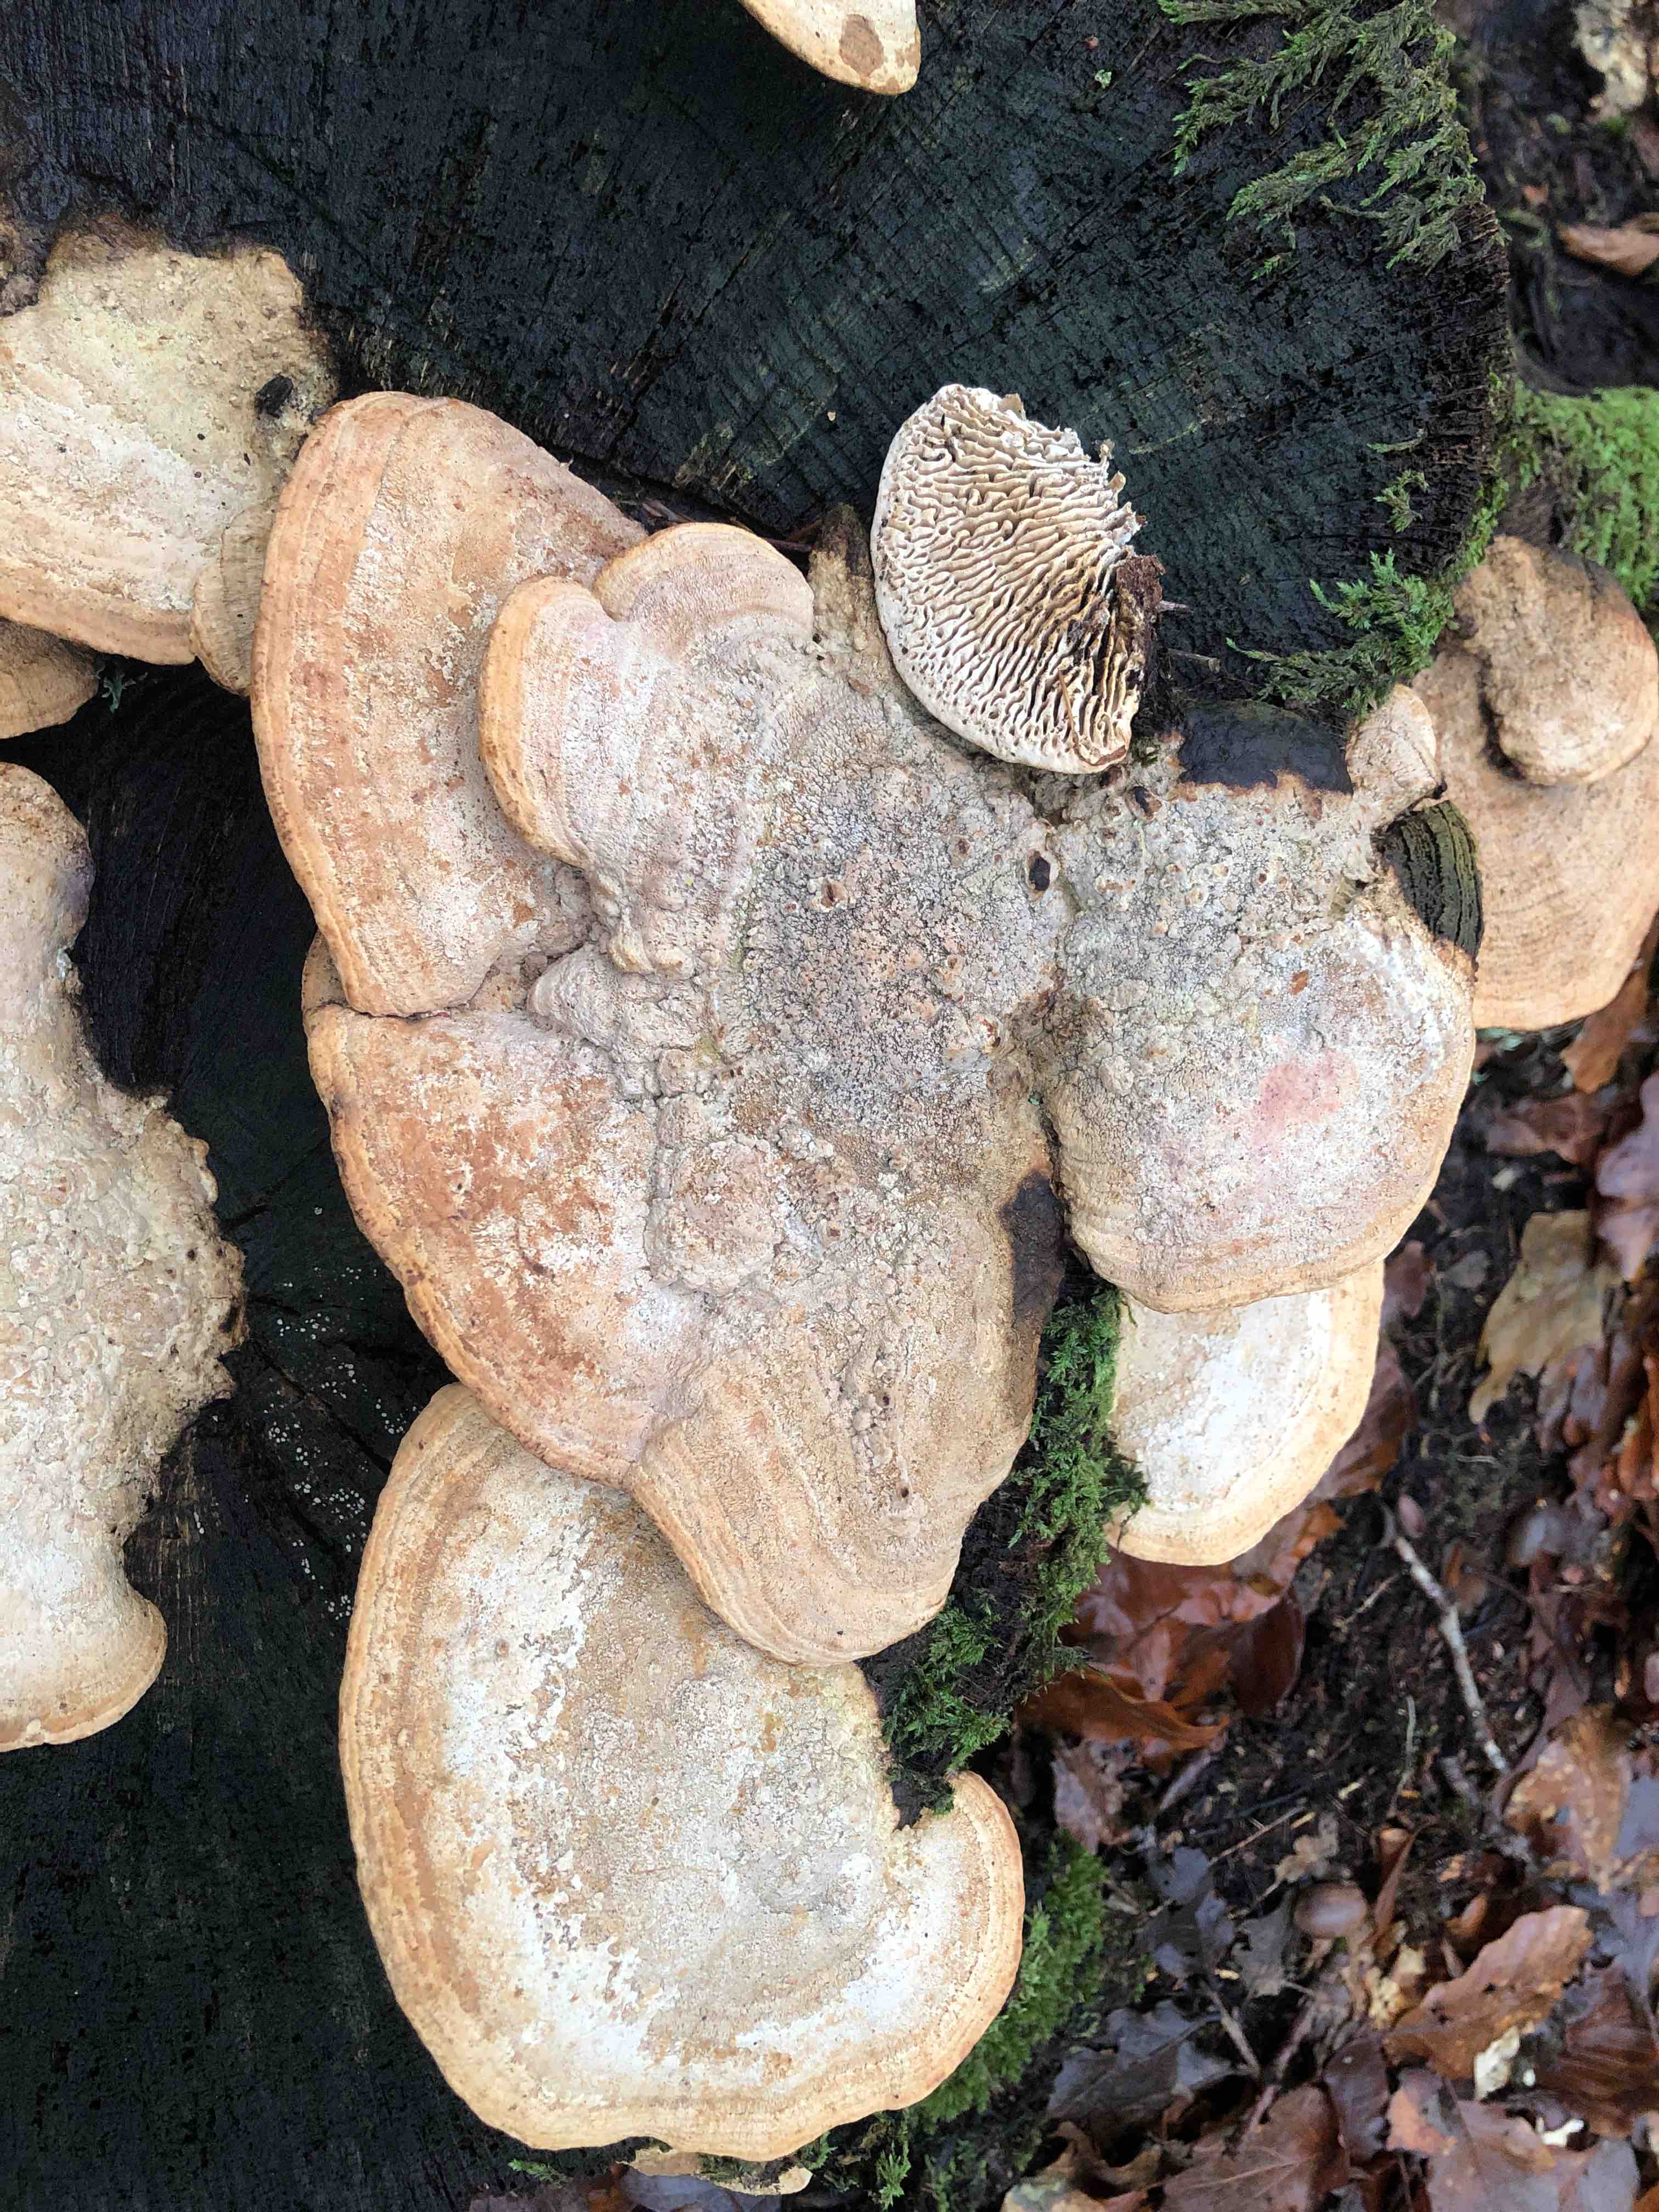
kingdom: Fungi
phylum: Basidiomycota
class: Agaricomycetes
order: Polyporales
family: Fomitopsidaceae
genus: Daedalea
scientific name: Daedalea quercina
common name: ege-labyrintsvamp
